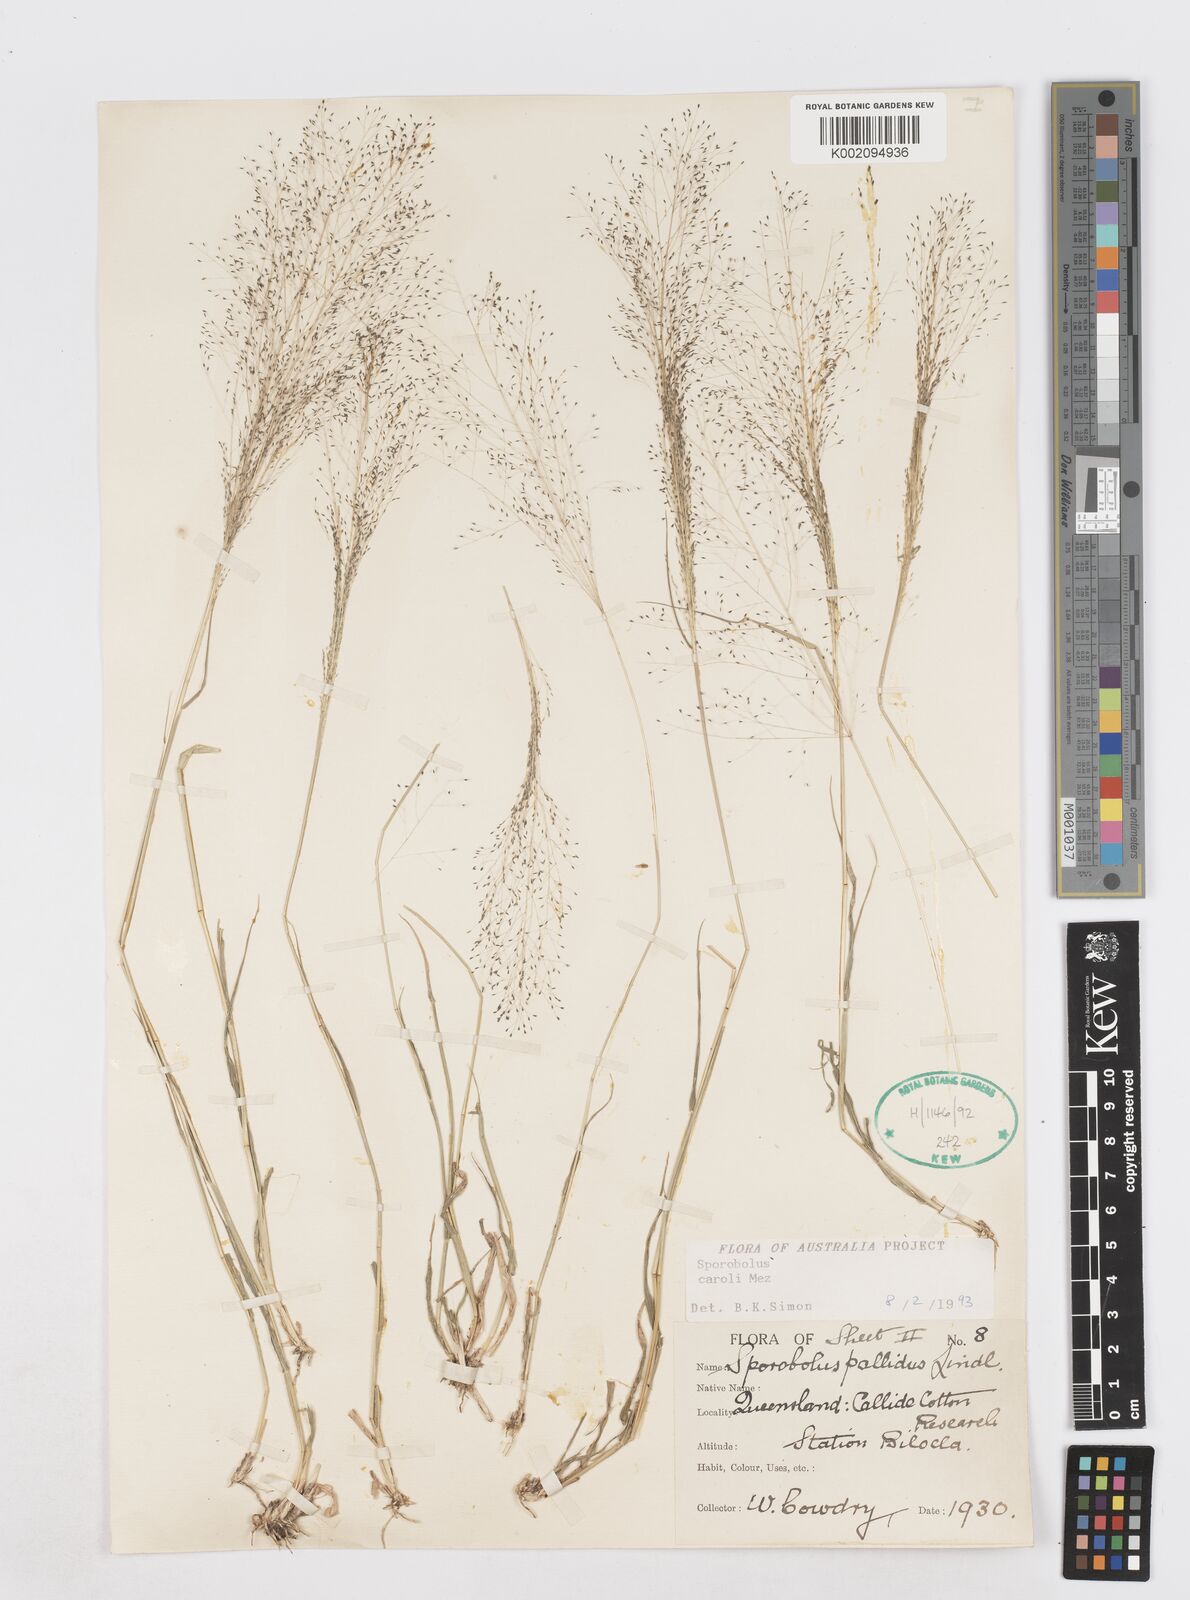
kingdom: Plantae
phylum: Tracheophyta
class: Liliopsida
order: Poales
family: Poaceae
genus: Sporobolus
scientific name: Sporobolus caroli
